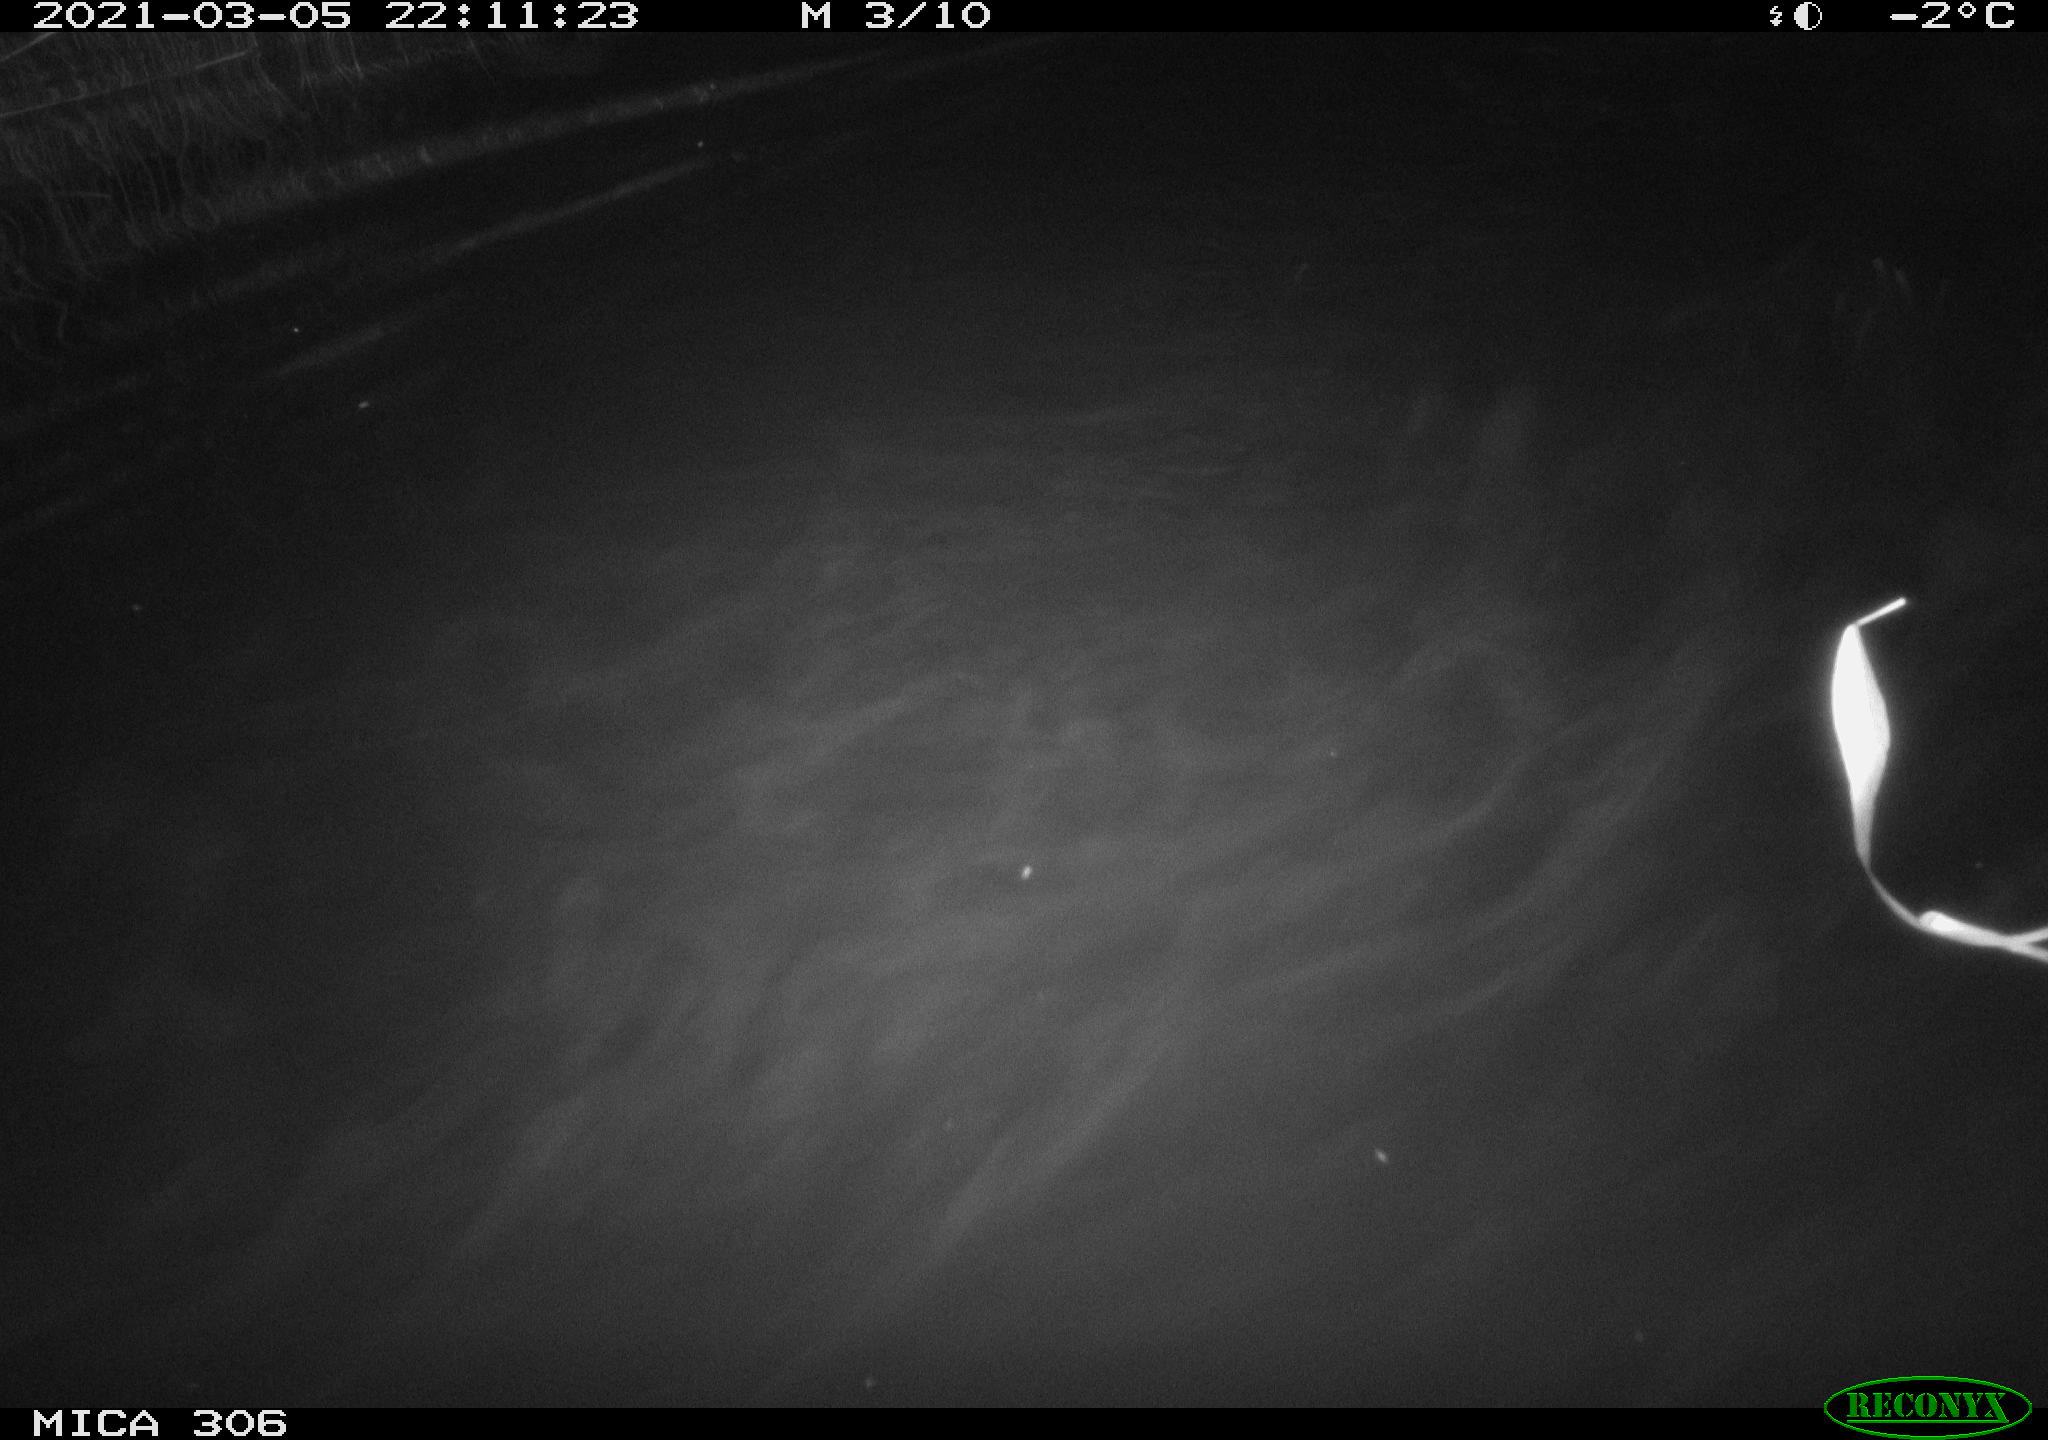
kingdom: Animalia
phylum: Chordata
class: Mammalia
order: Rodentia
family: Cricetidae
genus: Ondatra
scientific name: Ondatra zibethicus
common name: Muskrat
